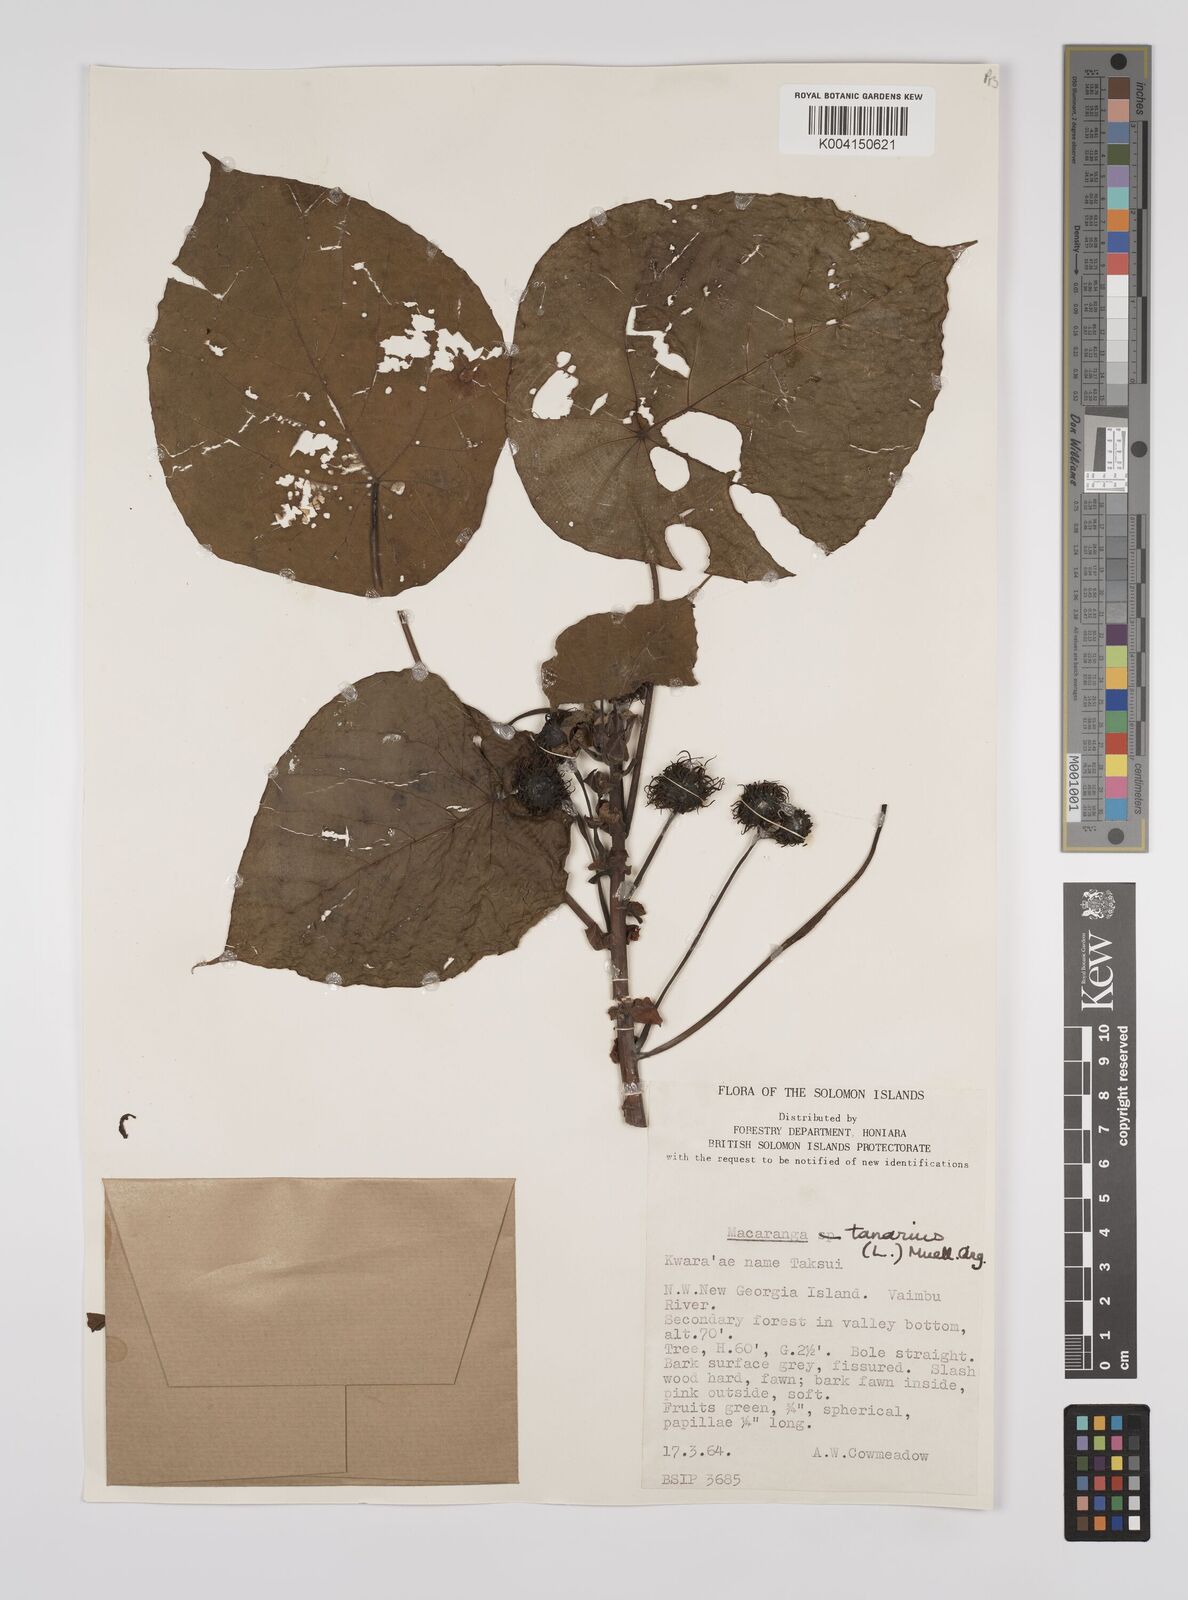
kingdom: Plantae
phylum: Tracheophyta
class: Magnoliopsida
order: Malpighiales
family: Euphorbiaceae
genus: Macaranga
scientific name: Macaranga tanarius
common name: Parasol leaf tree
